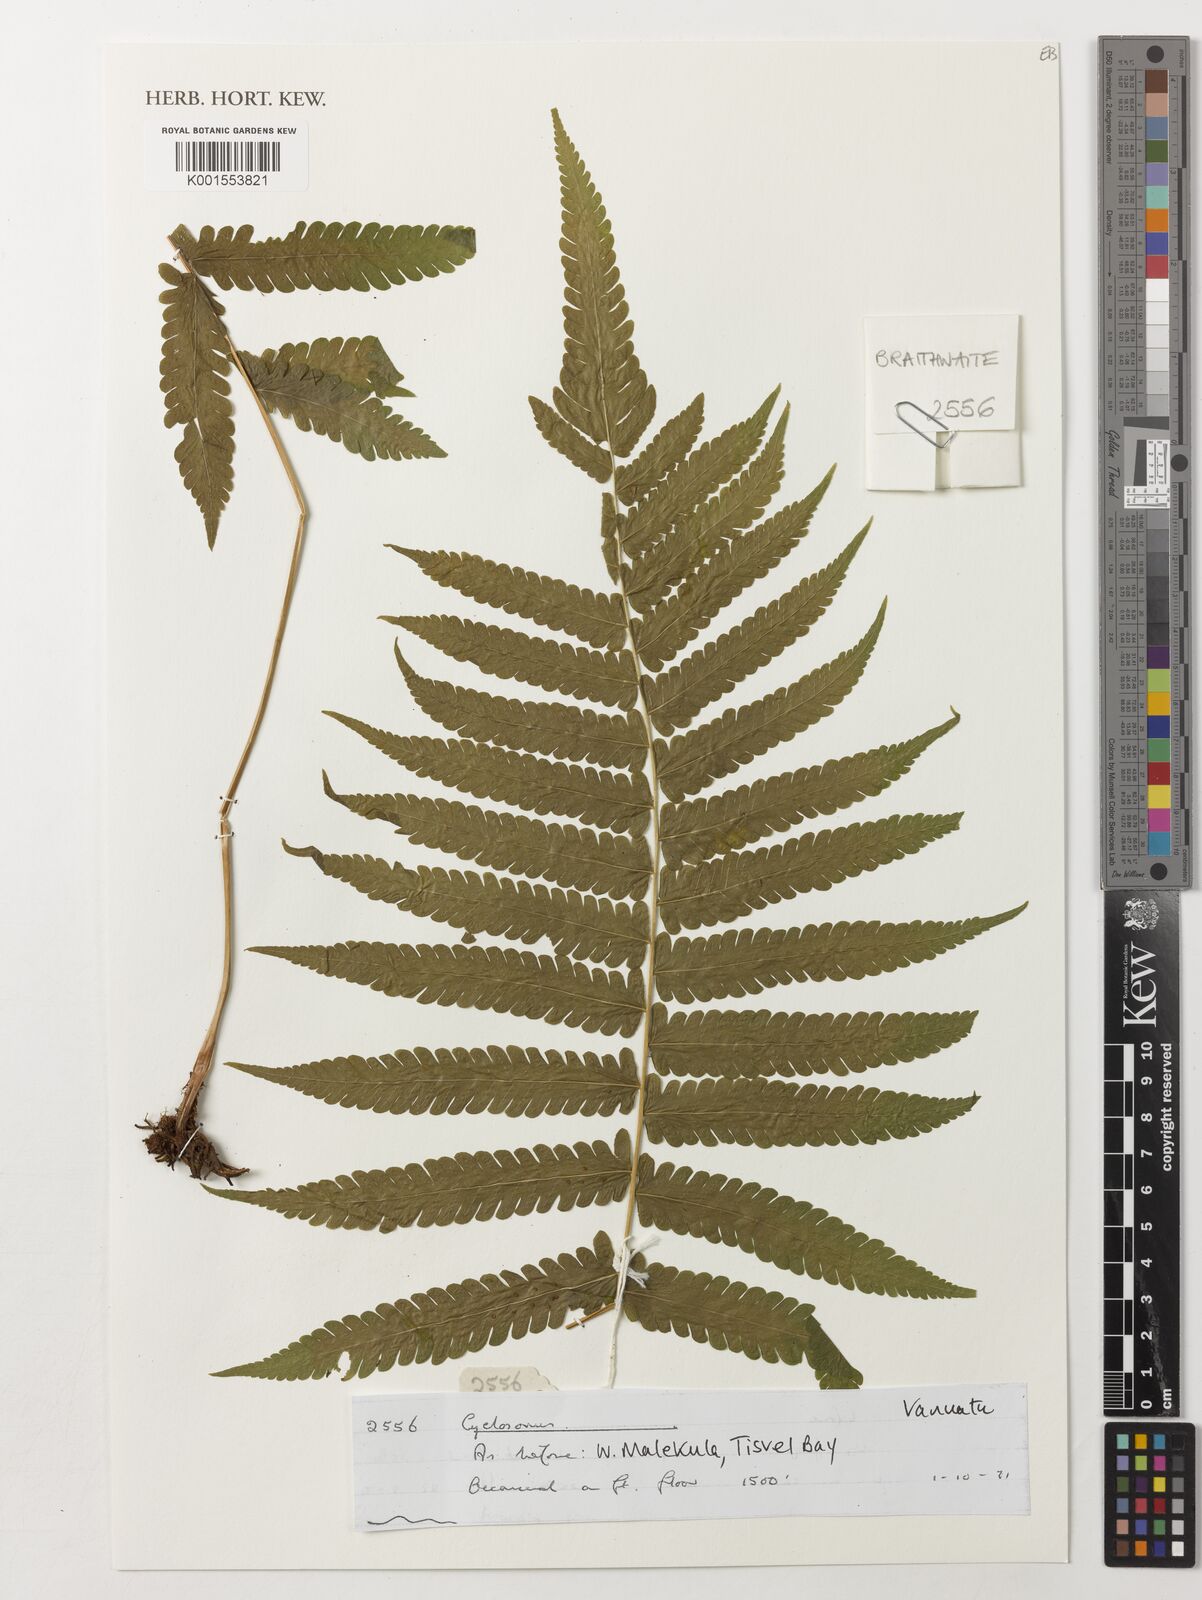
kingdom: Plantae
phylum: Tracheophyta
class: Polypodiopsida
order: Polypodiales
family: Thelypteridaceae
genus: Cyclosorus
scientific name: Cyclosorus
